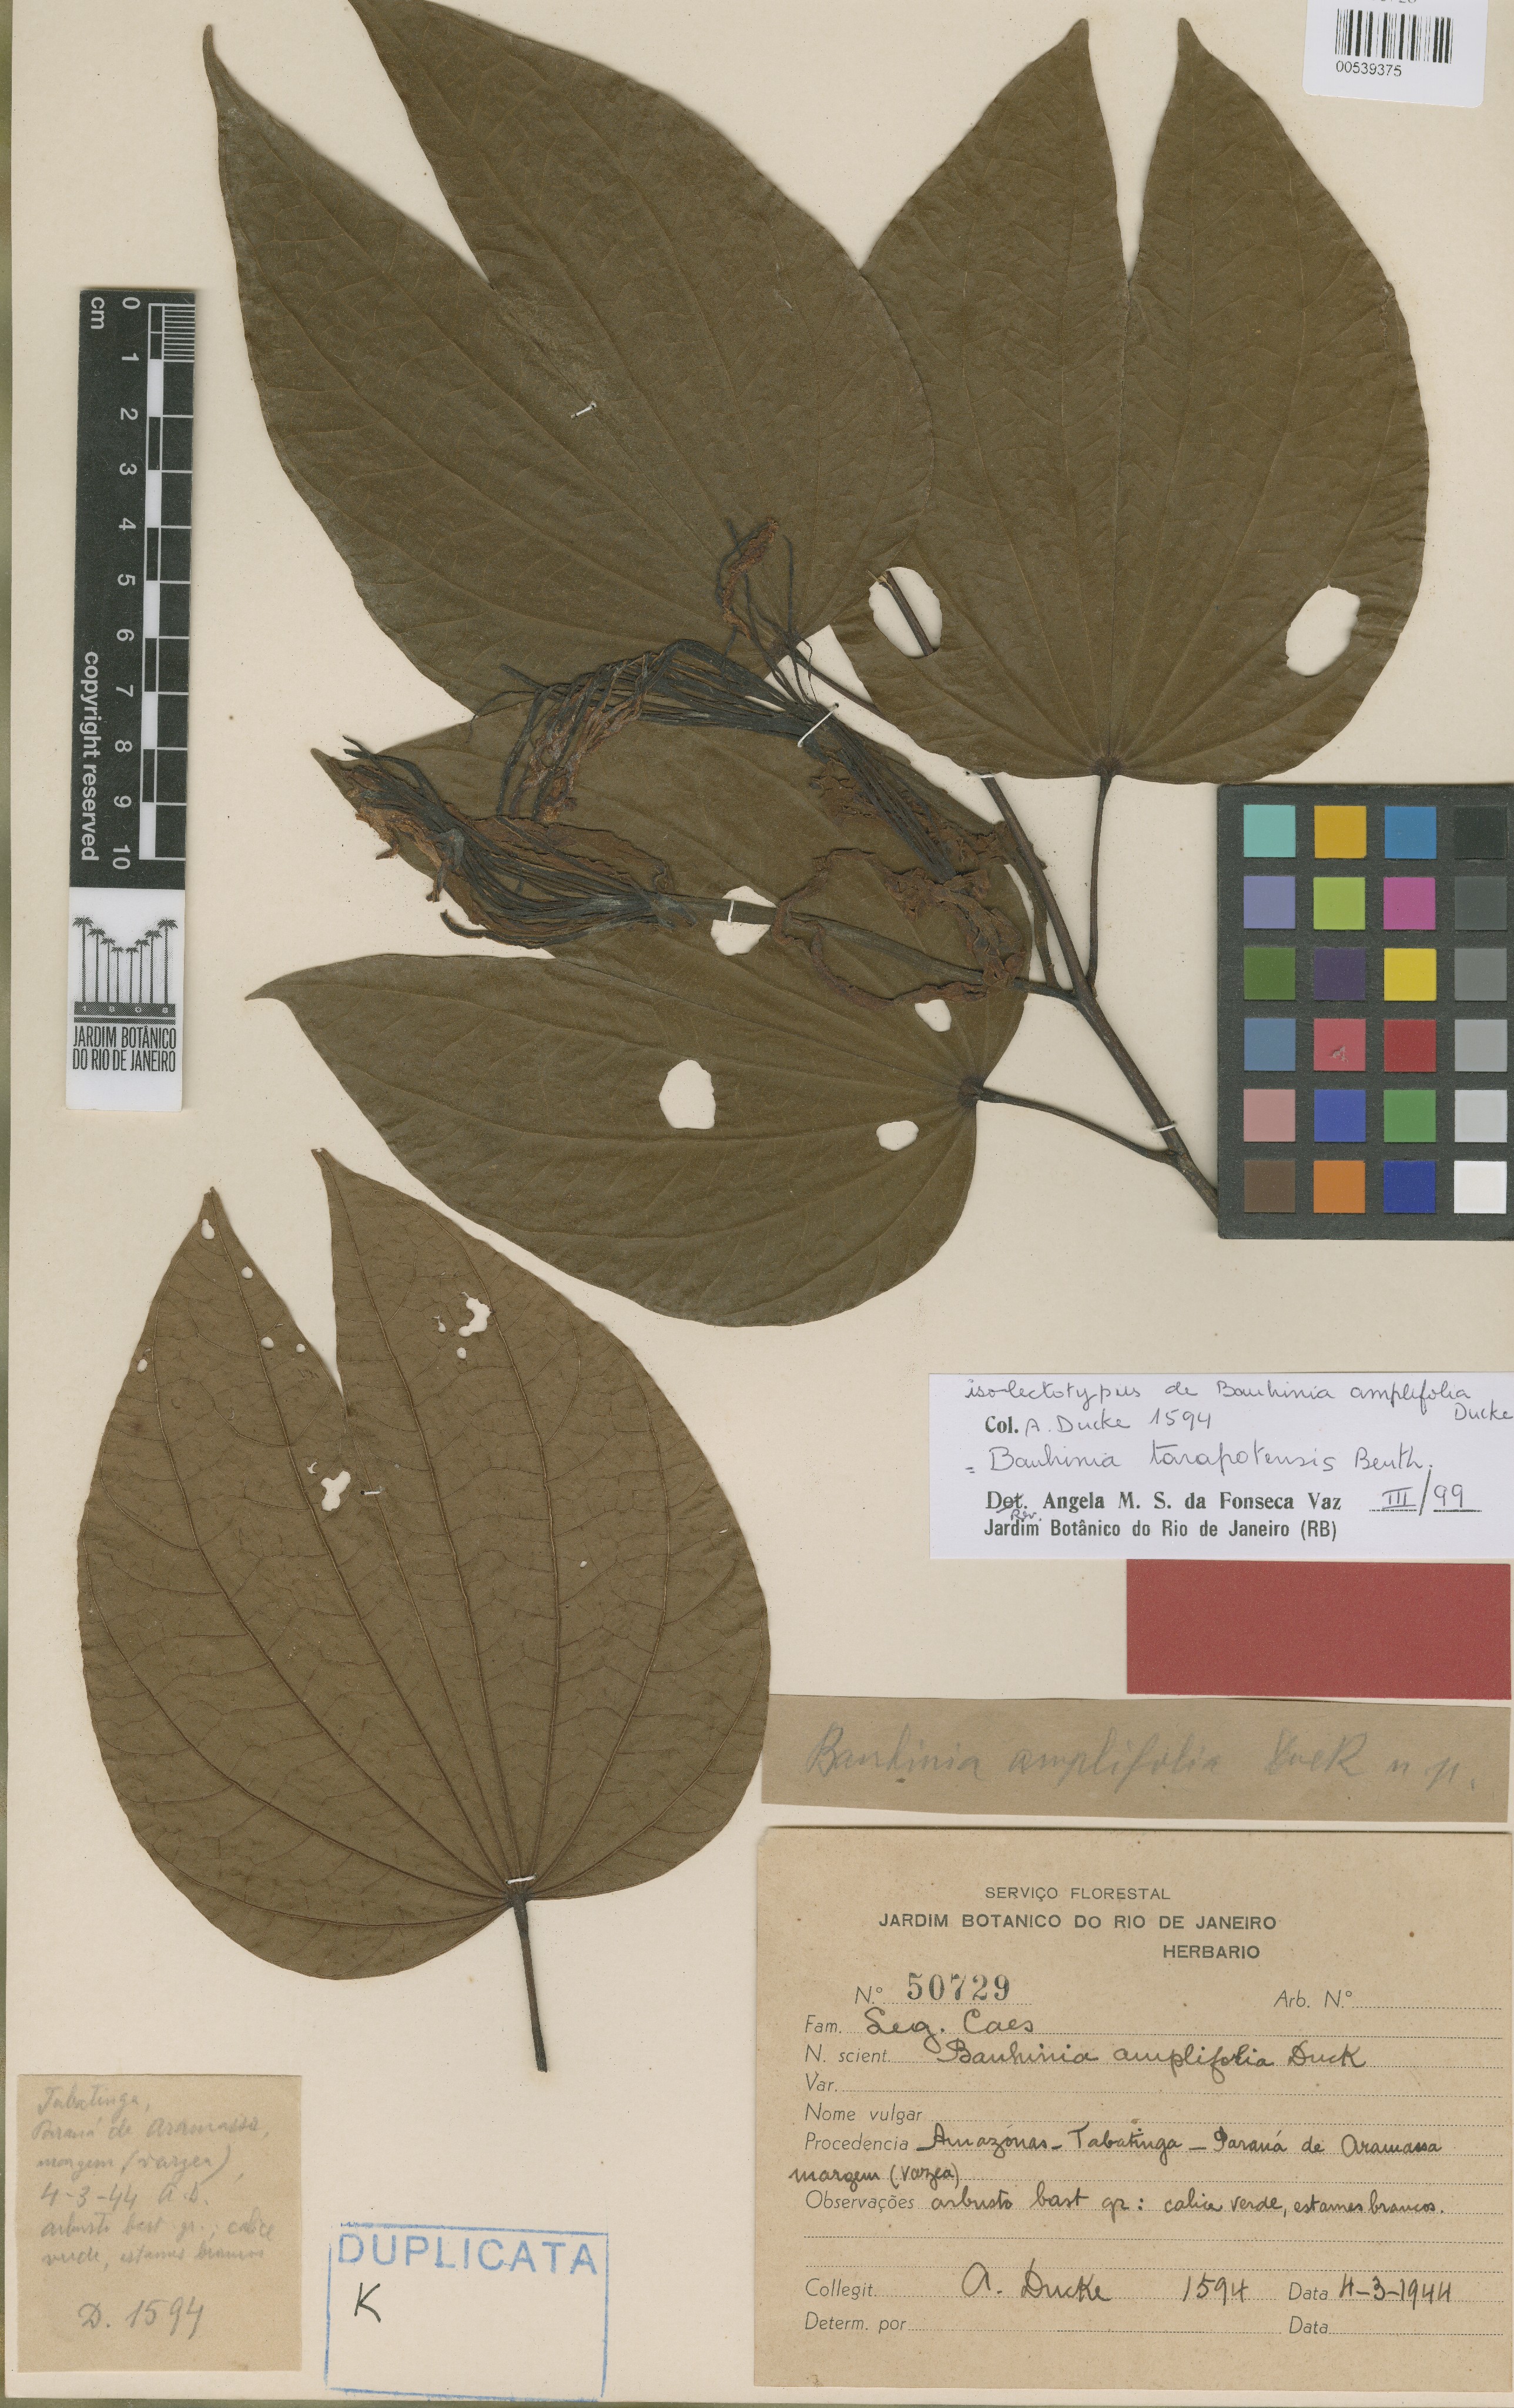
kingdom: Plantae
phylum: Tracheophyta
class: Magnoliopsida
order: Fabales
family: Fabaceae
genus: Bauhinia
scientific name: Bauhinia tarapotensis
